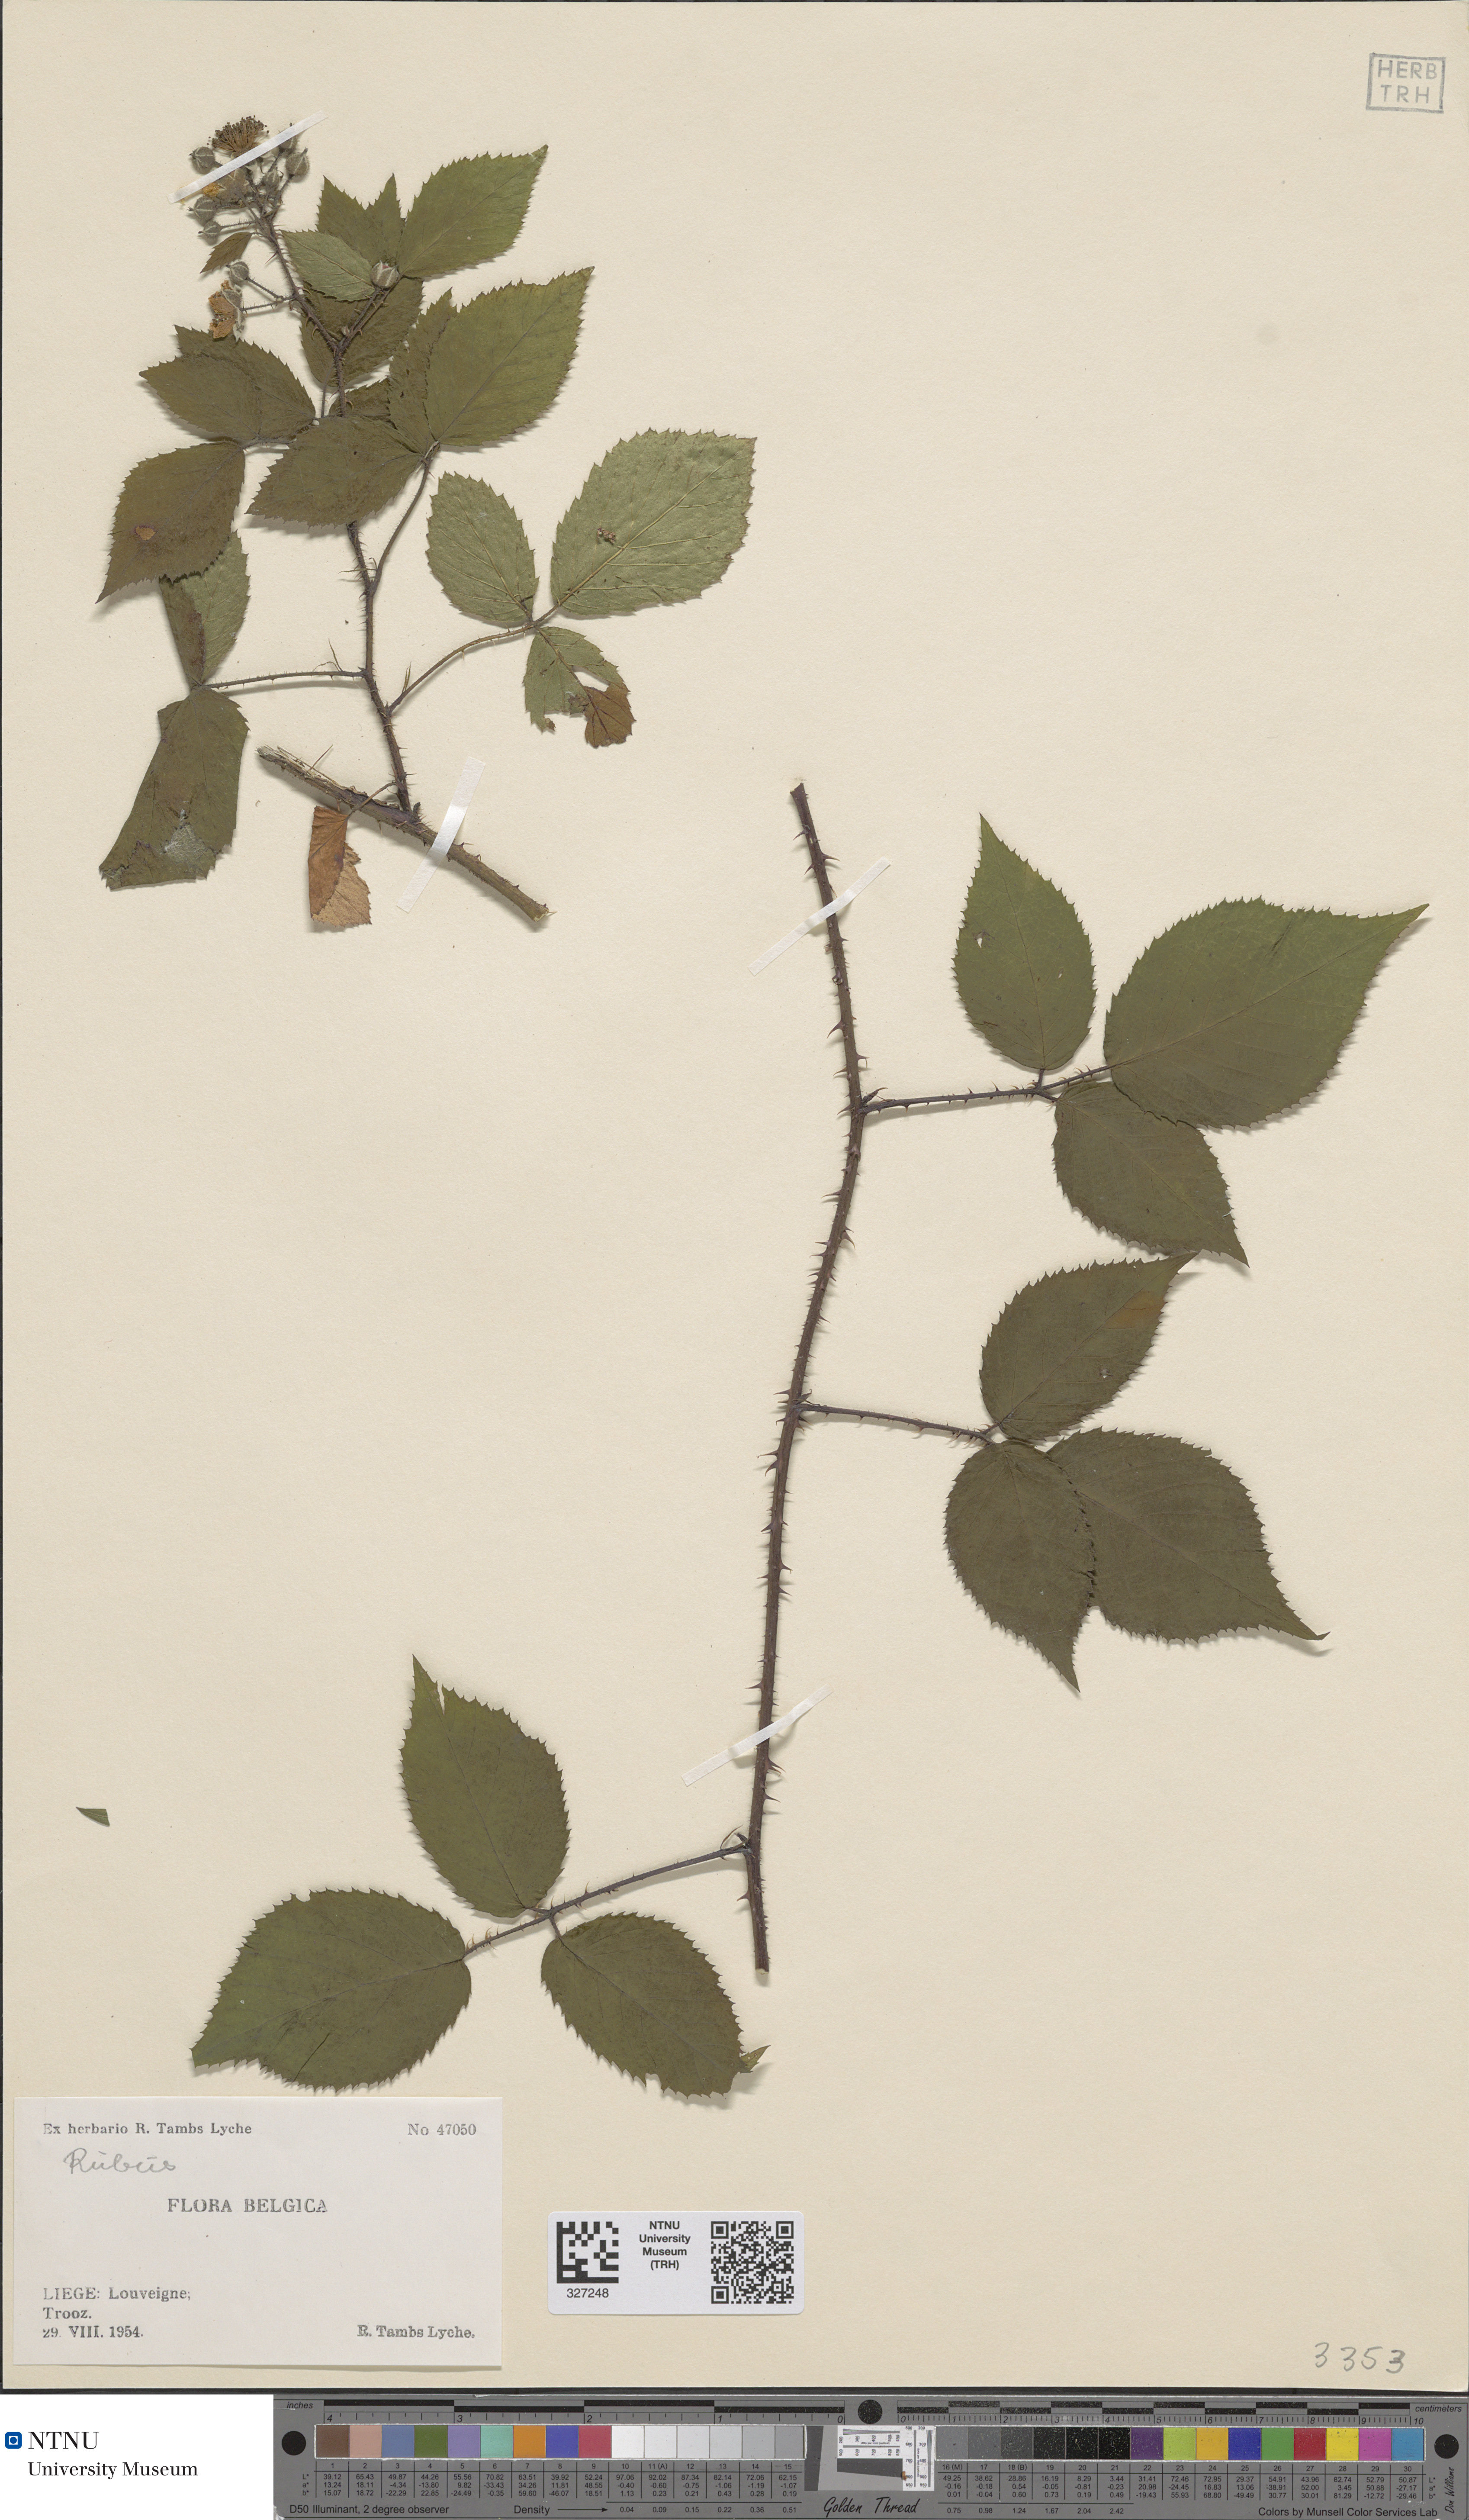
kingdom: Plantae
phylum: Tracheophyta
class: Magnoliopsida
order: Rosales
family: Rosaceae
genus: Rubus
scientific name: Rubus
